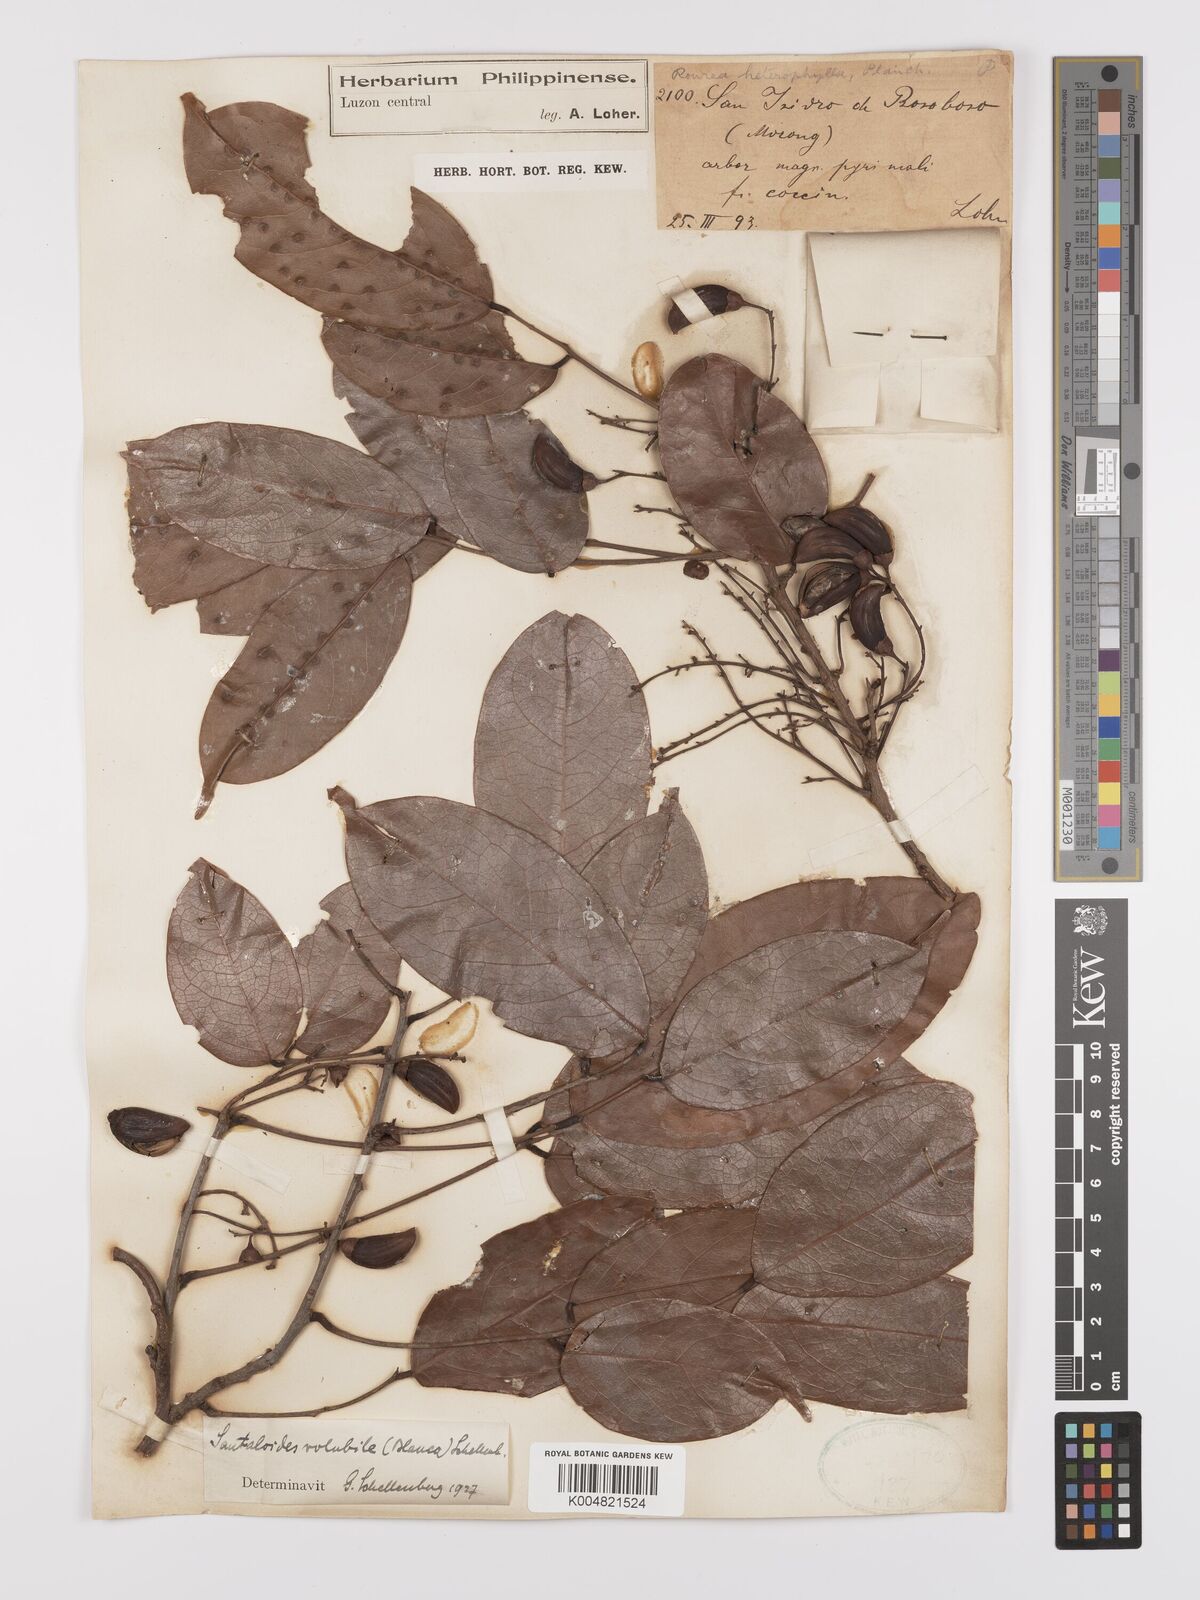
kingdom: Plantae
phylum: Tracheophyta
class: Magnoliopsida
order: Oxalidales
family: Connaraceae
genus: Rourea
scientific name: Rourea minor
